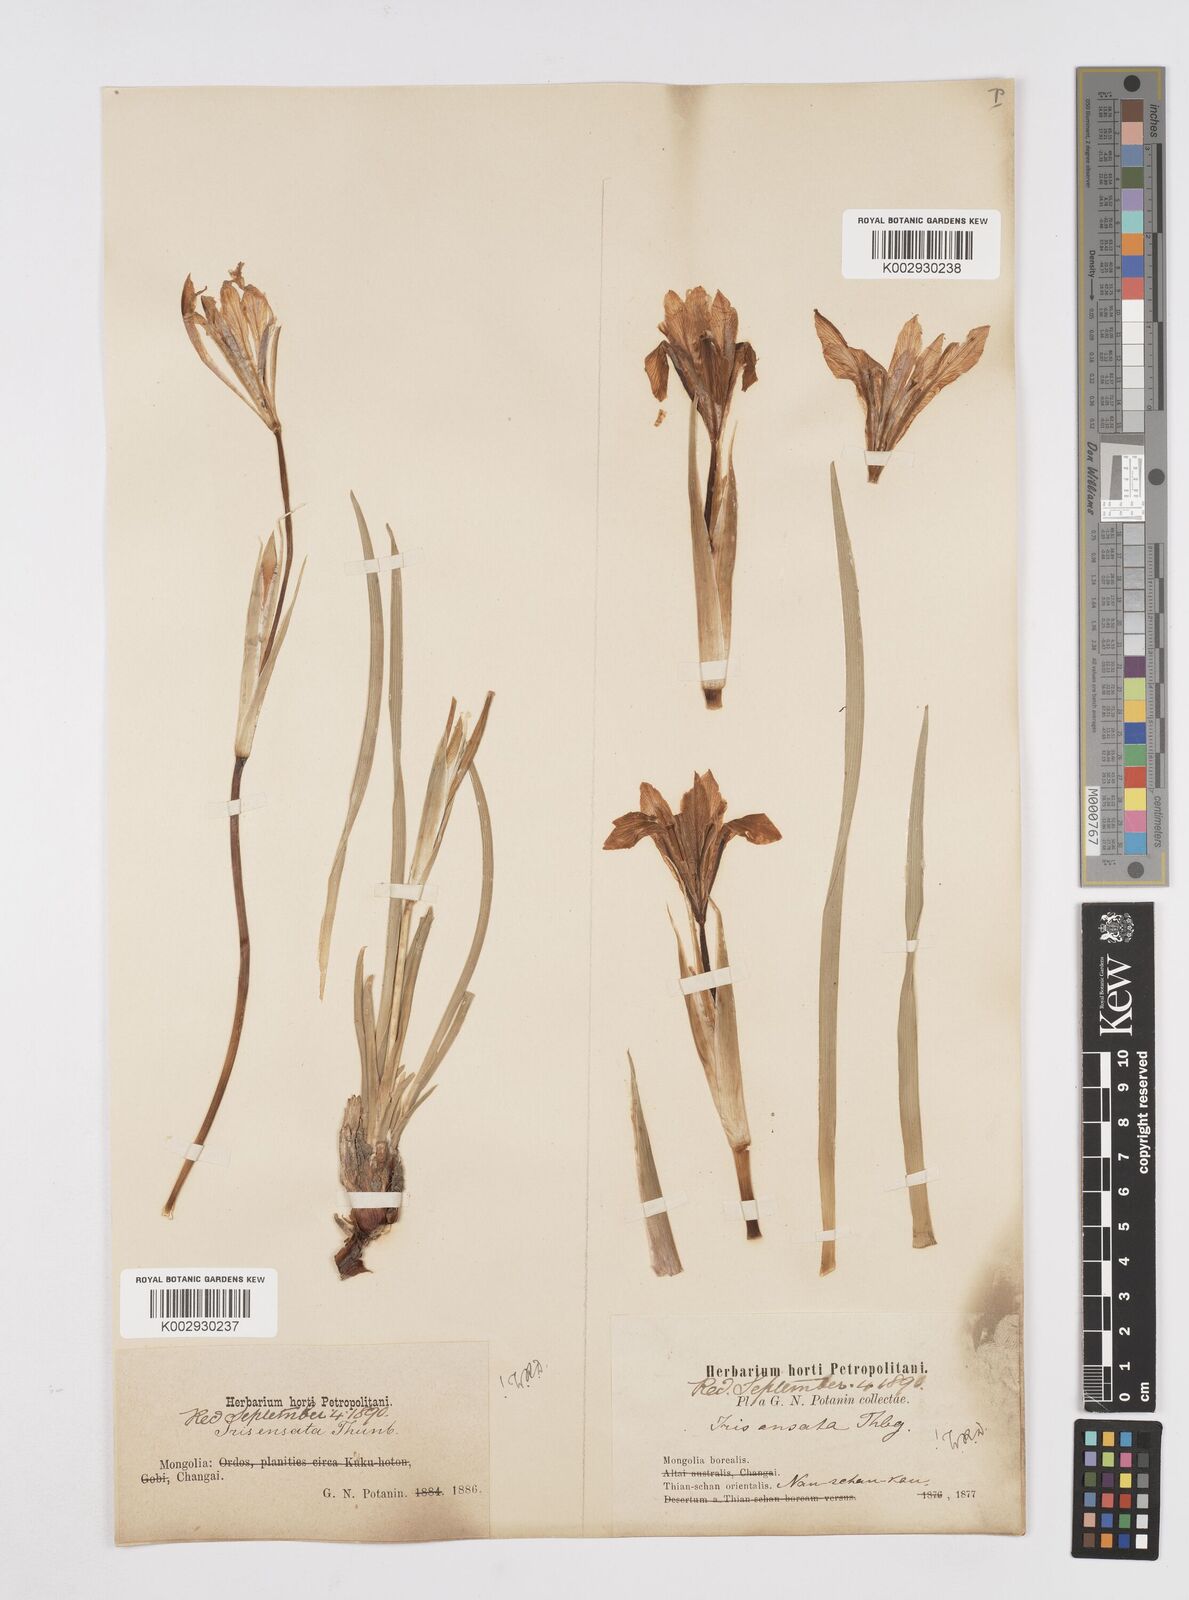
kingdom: Plantae
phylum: Tracheophyta
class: Liliopsida
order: Asparagales
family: Iridaceae
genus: Iris
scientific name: Iris lactea
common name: White-flower chinese iris
